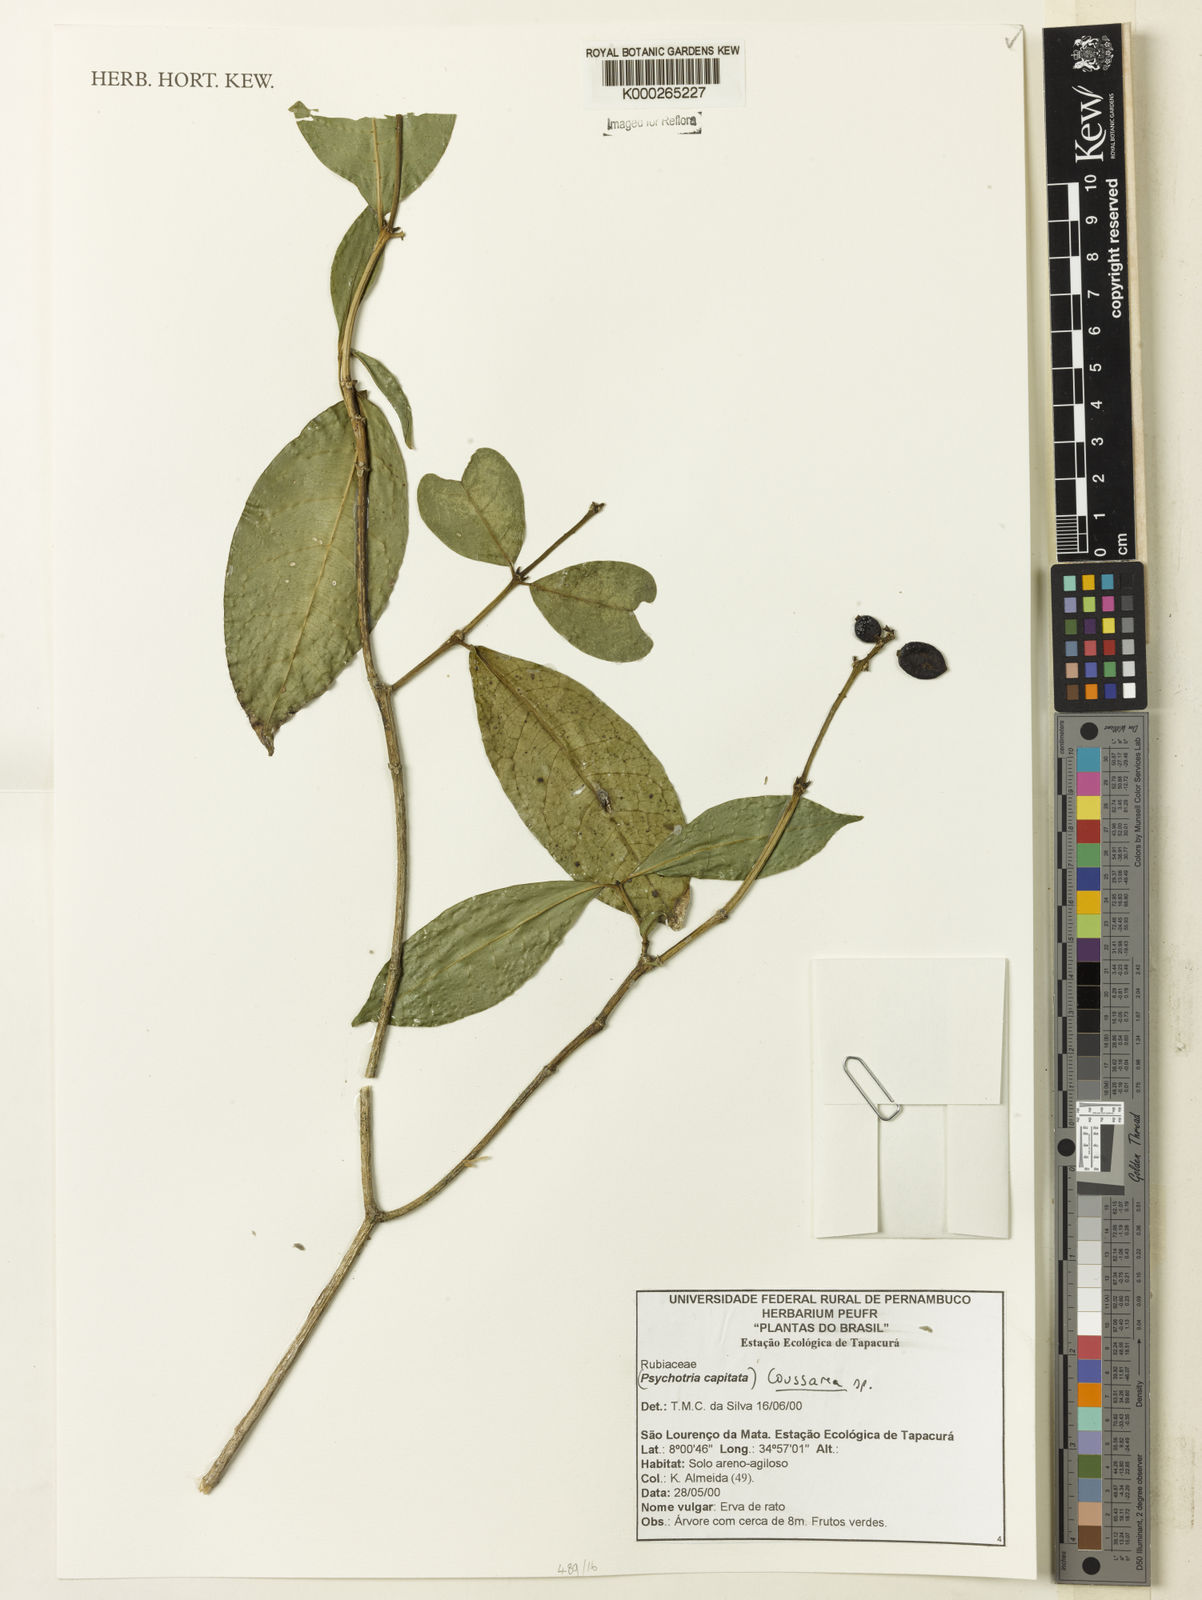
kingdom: Plantae
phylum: Tracheophyta
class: Magnoliopsida
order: Gentianales
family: Rubiaceae
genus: Coussarea
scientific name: Coussarea
